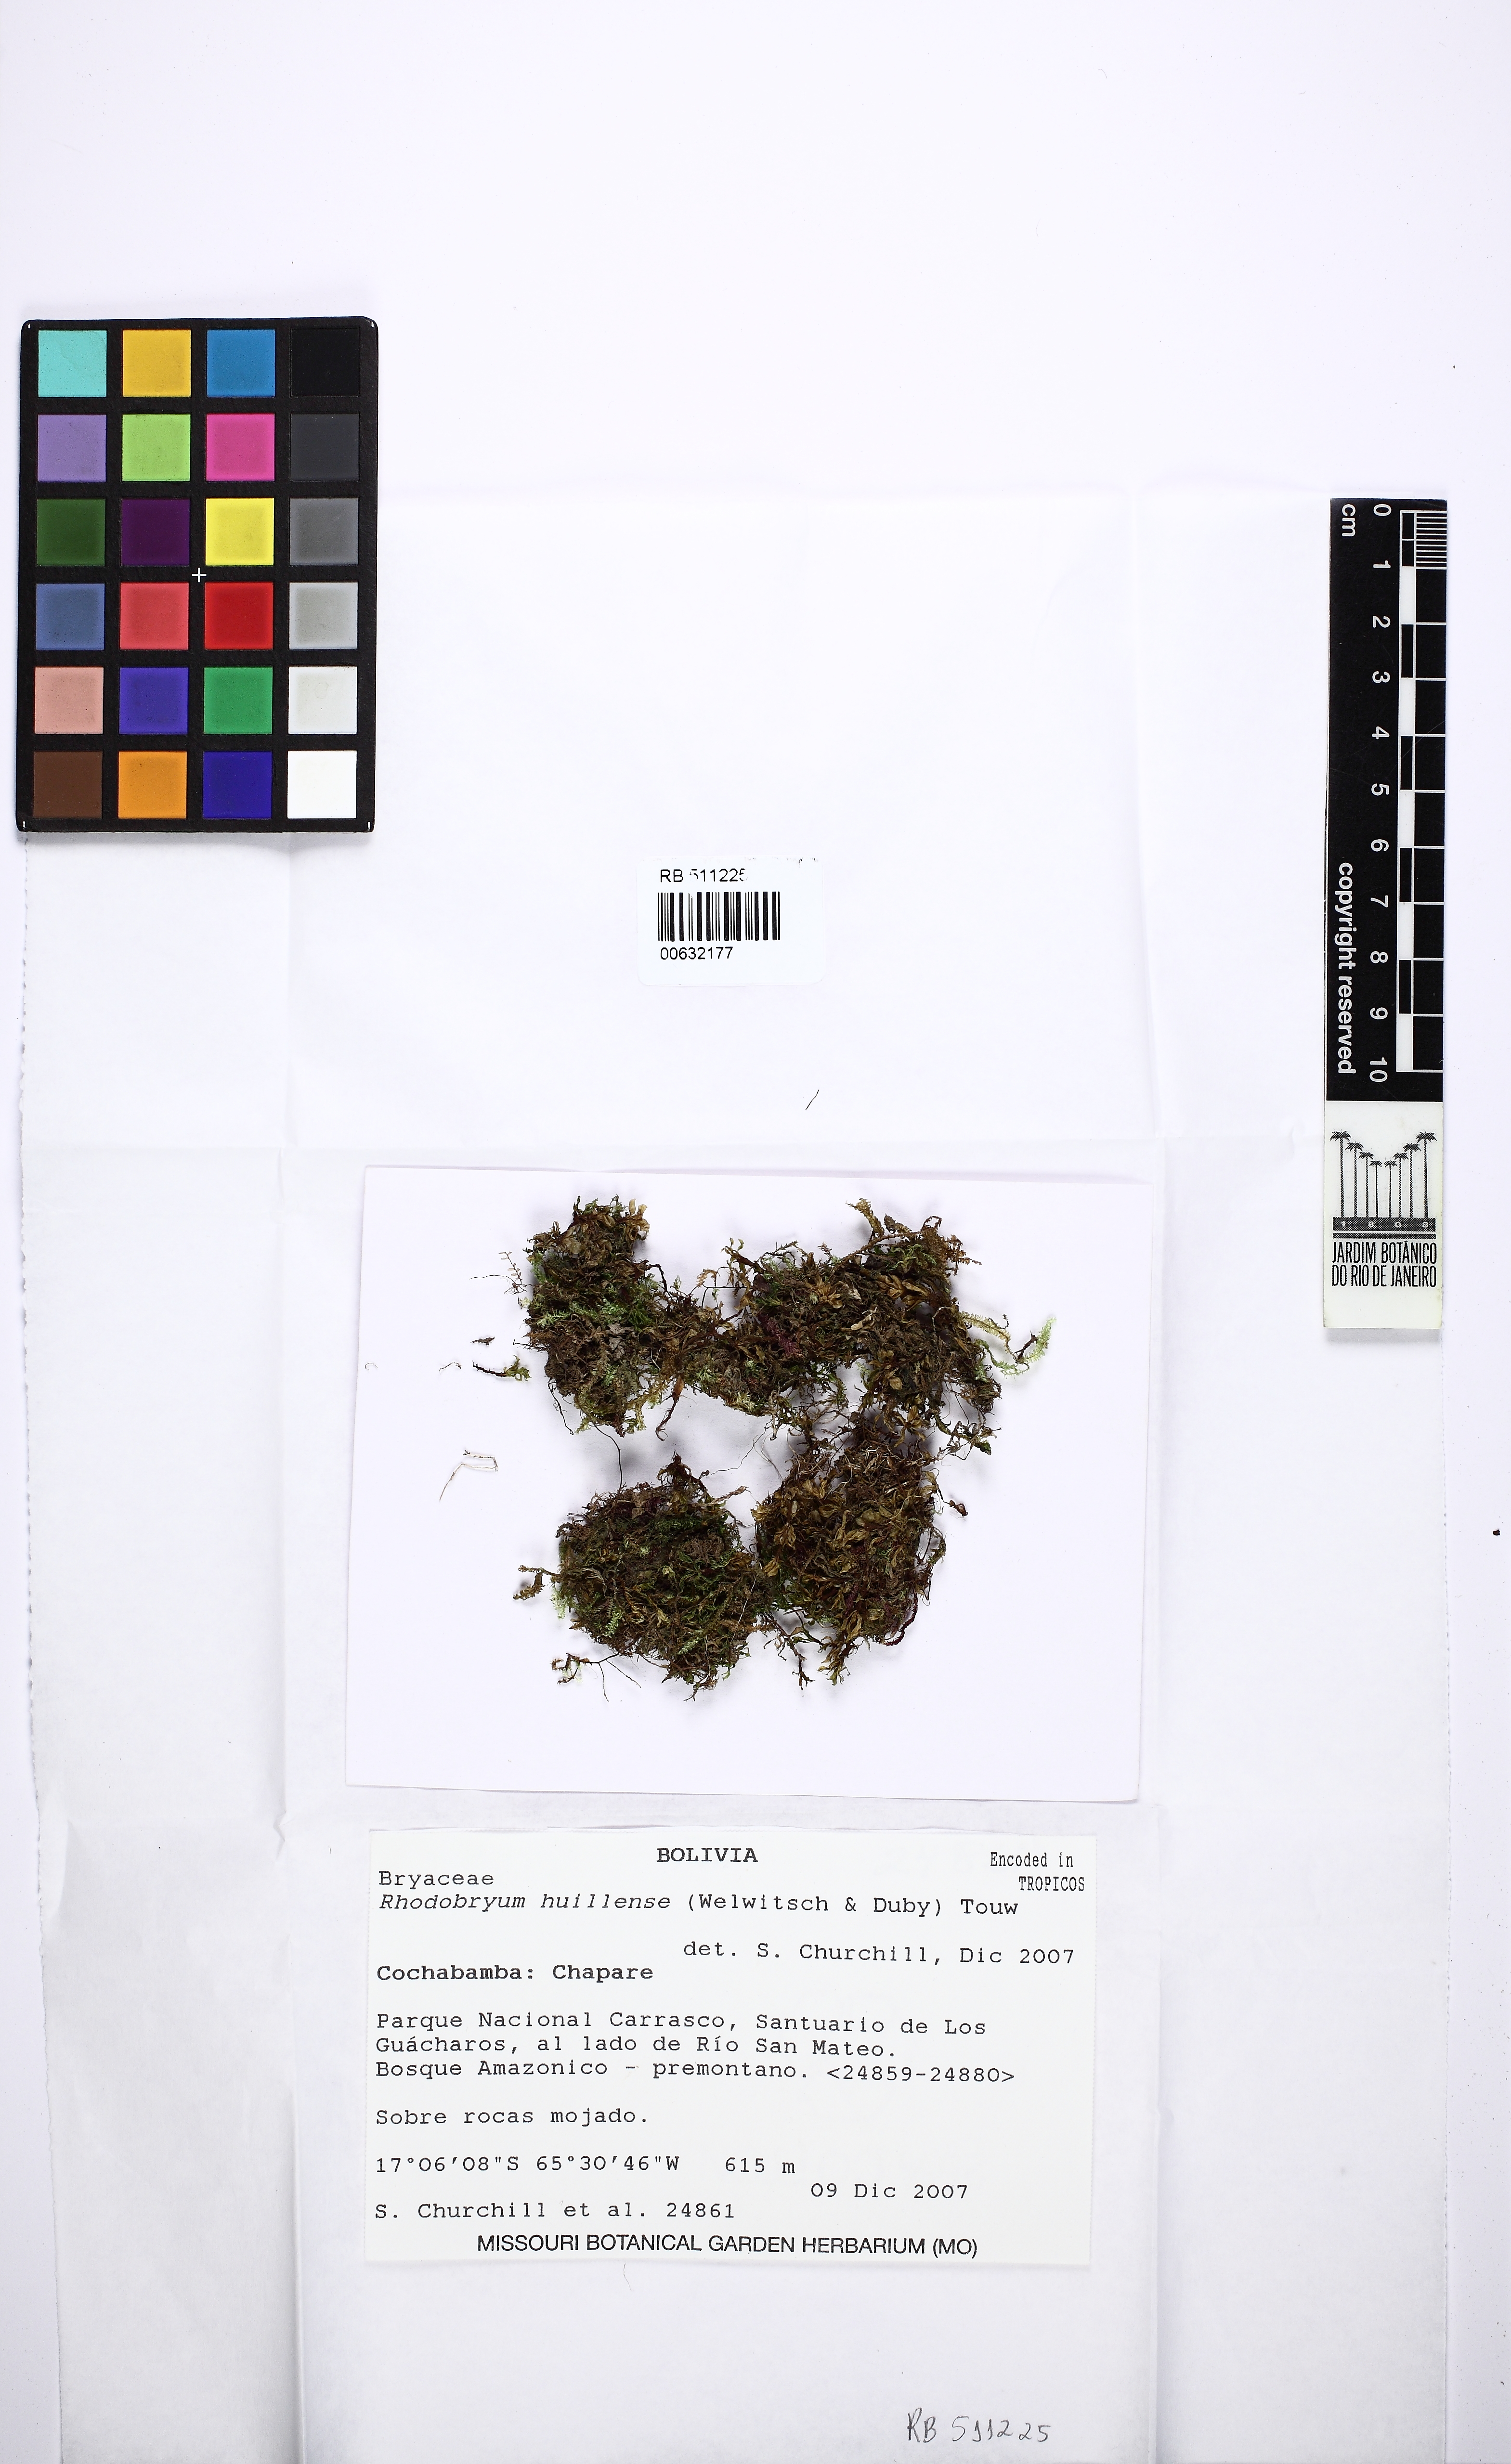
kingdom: Plantae
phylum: Bryophyta
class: Bryopsida
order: Bryales
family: Bryaceae
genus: Rosulabryum
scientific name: Rosulabryum huillense
